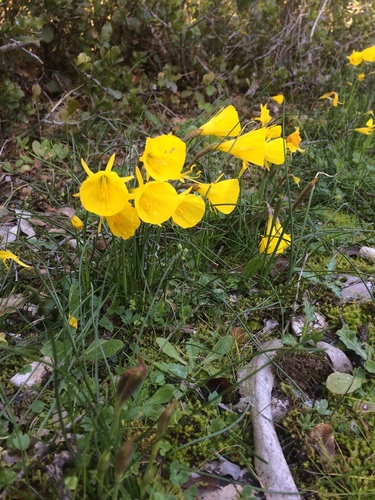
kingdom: Plantae
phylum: Tracheophyta
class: Liliopsida
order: Asparagales
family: Amaryllidaceae
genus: Narcissus
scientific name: Narcissus bulbocodium
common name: Hoop-petticoat daffodil
